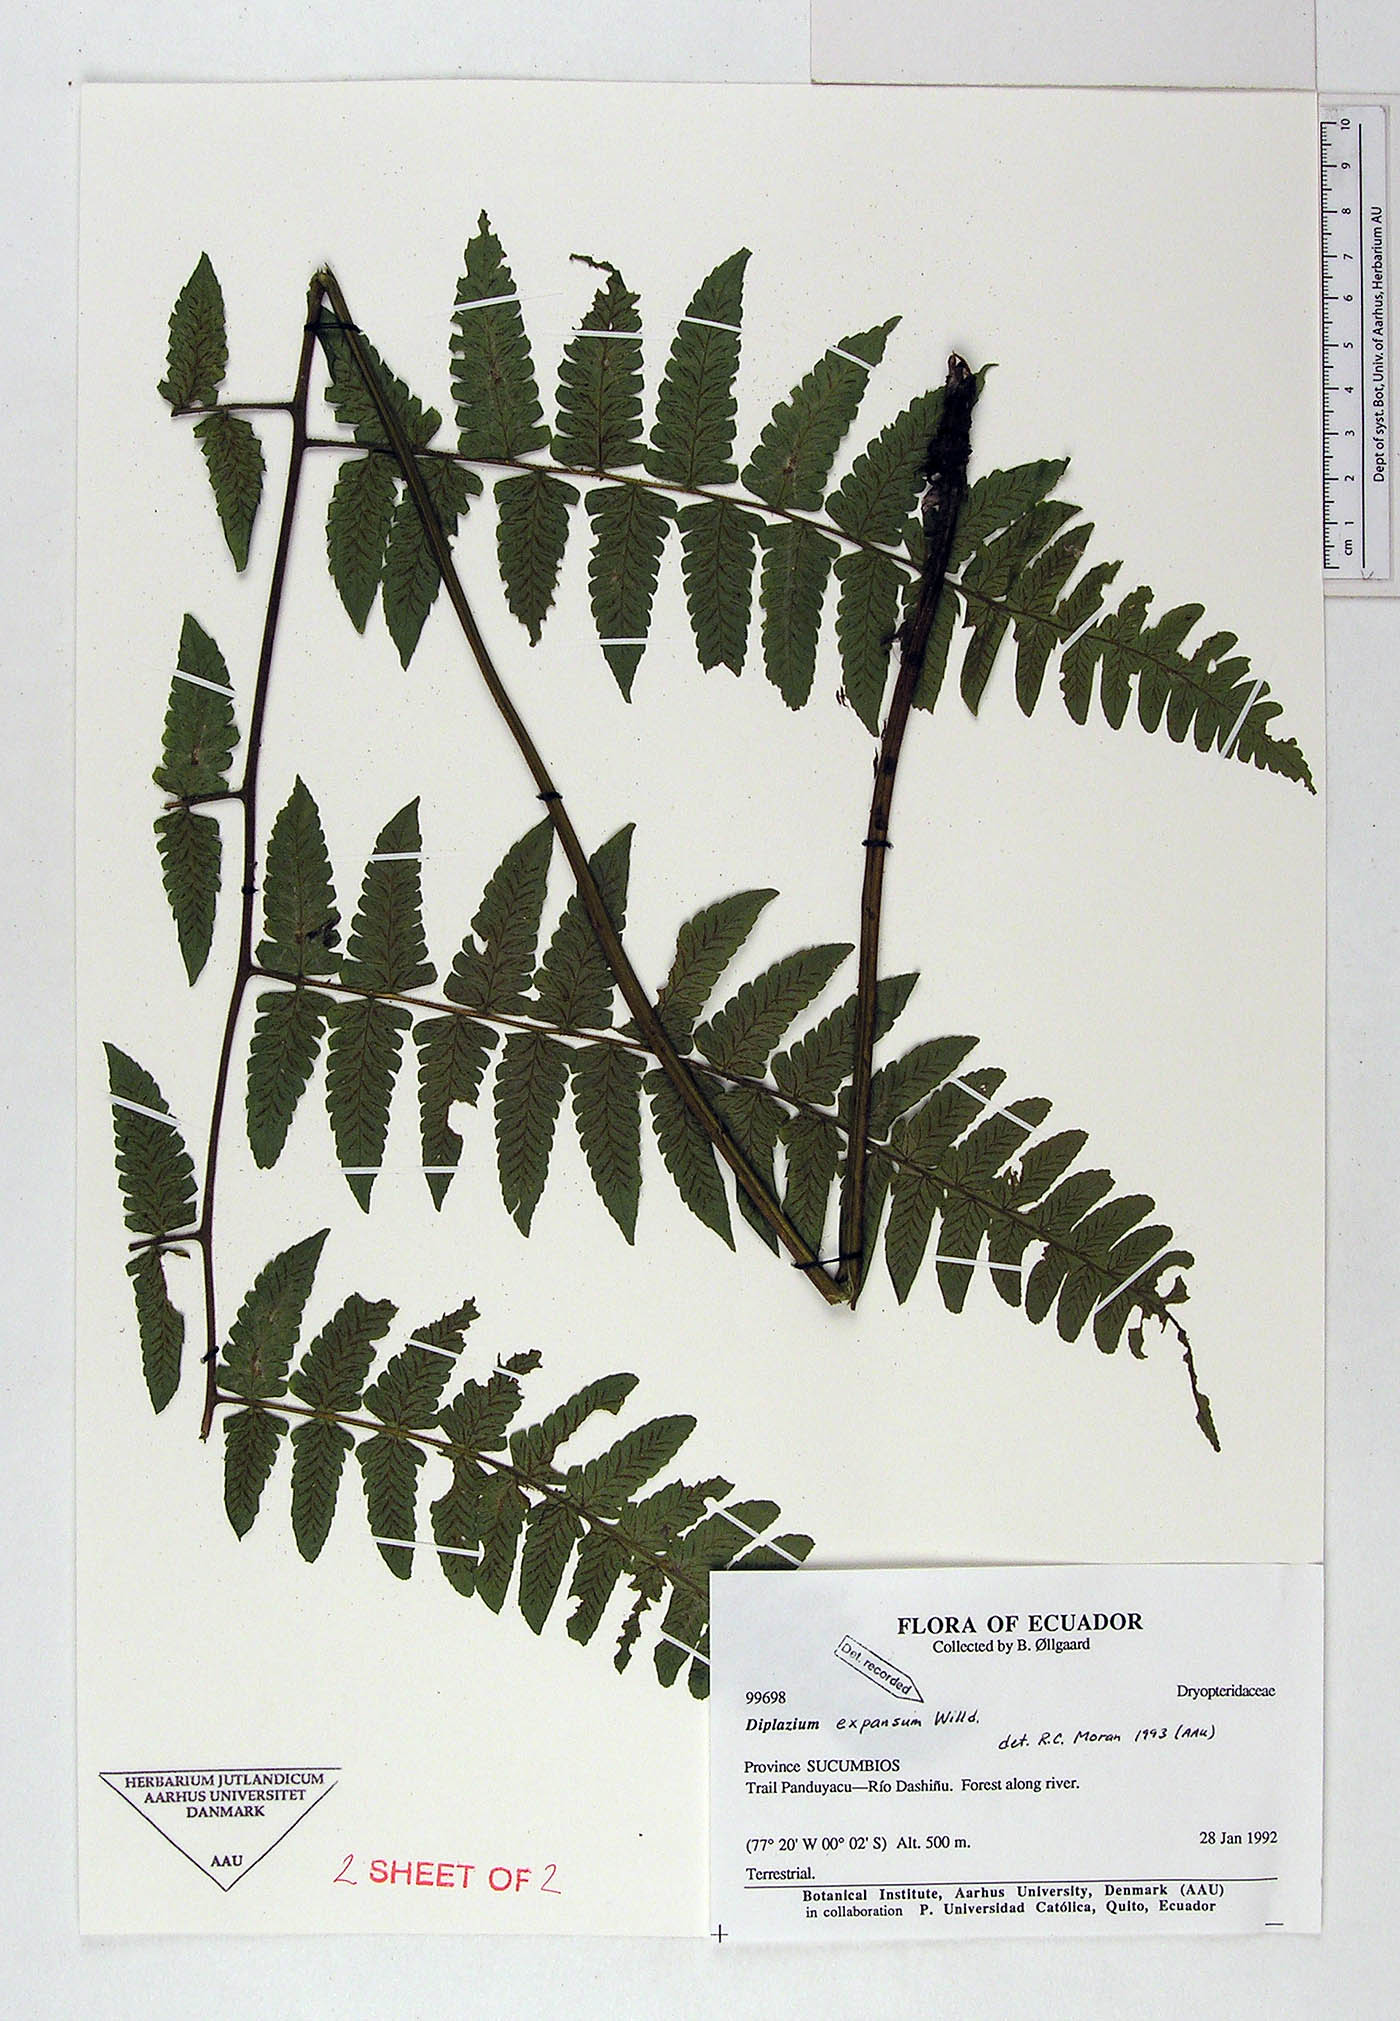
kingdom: Plantae
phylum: Tracheophyta
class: Polypodiopsida
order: Polypodiales
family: Athyriaceae
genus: Diplazium
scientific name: Diplazium expansum
